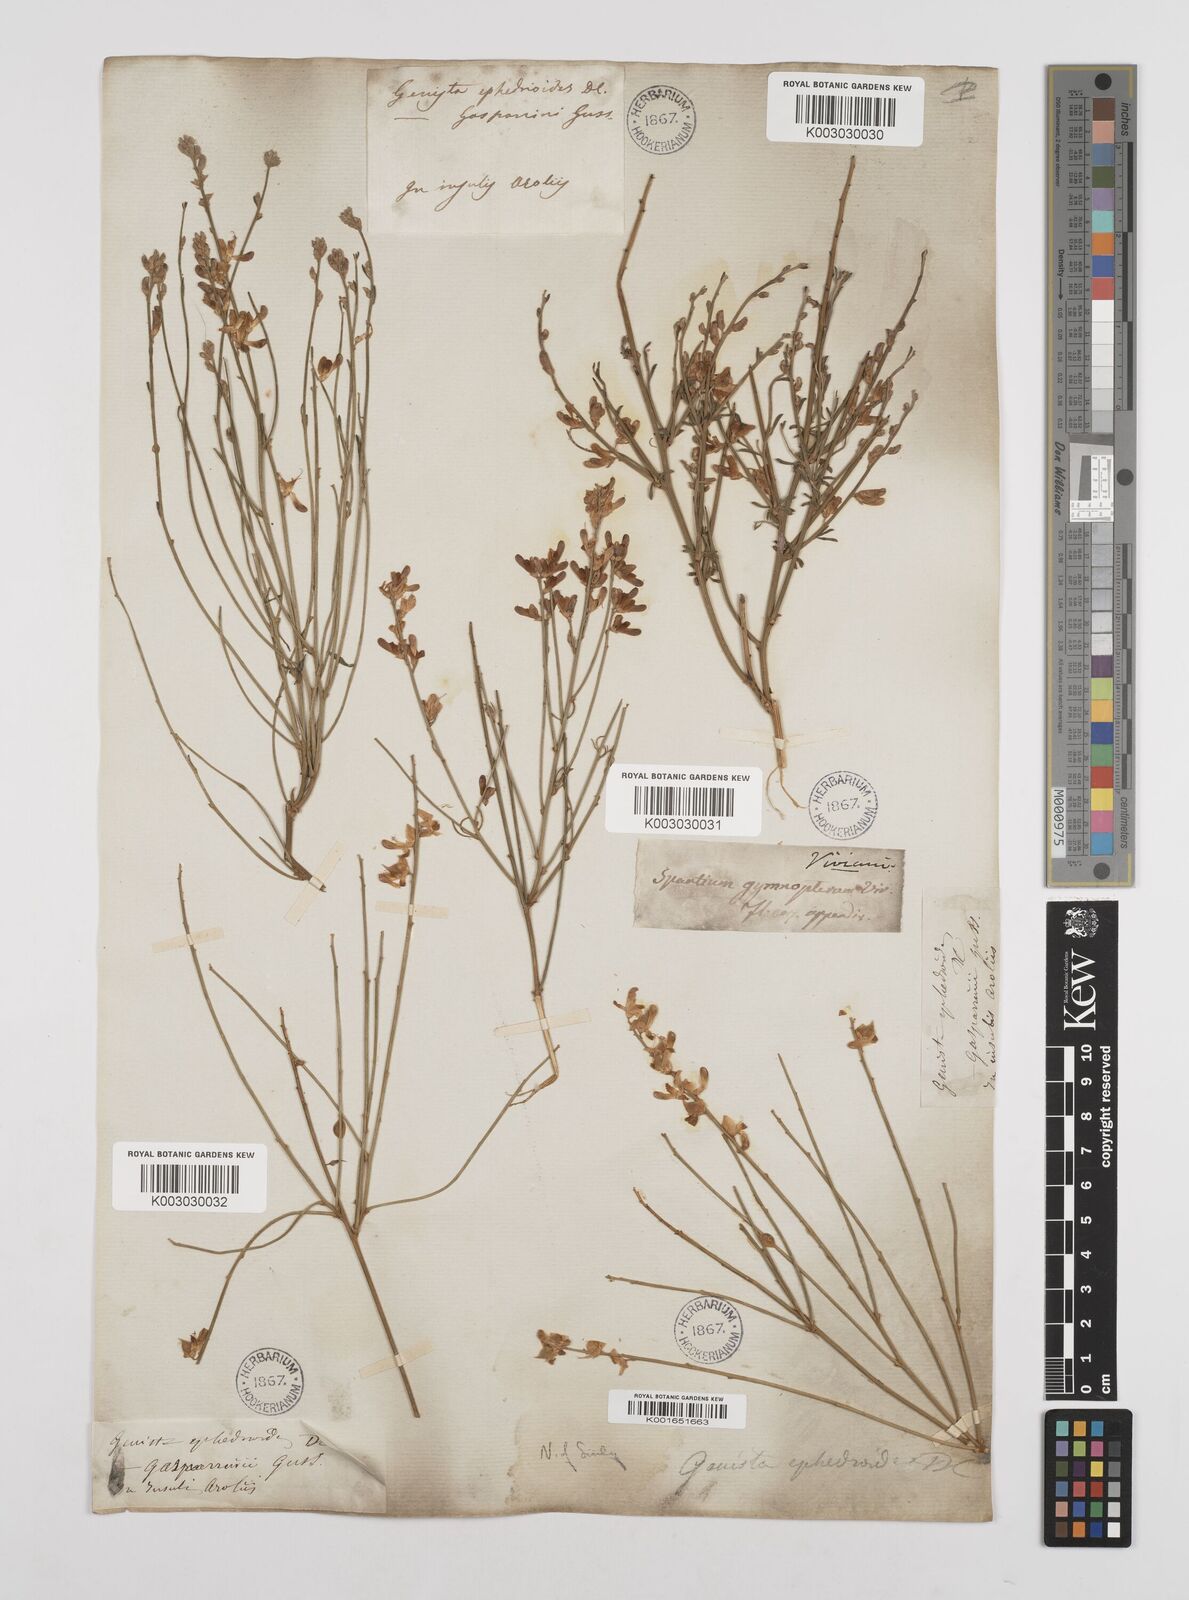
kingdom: Plantae
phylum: Tracheophyta
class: Magnoliopsida
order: Fabales
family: Fabaceae
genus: Genista
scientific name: Genista ephedroides
